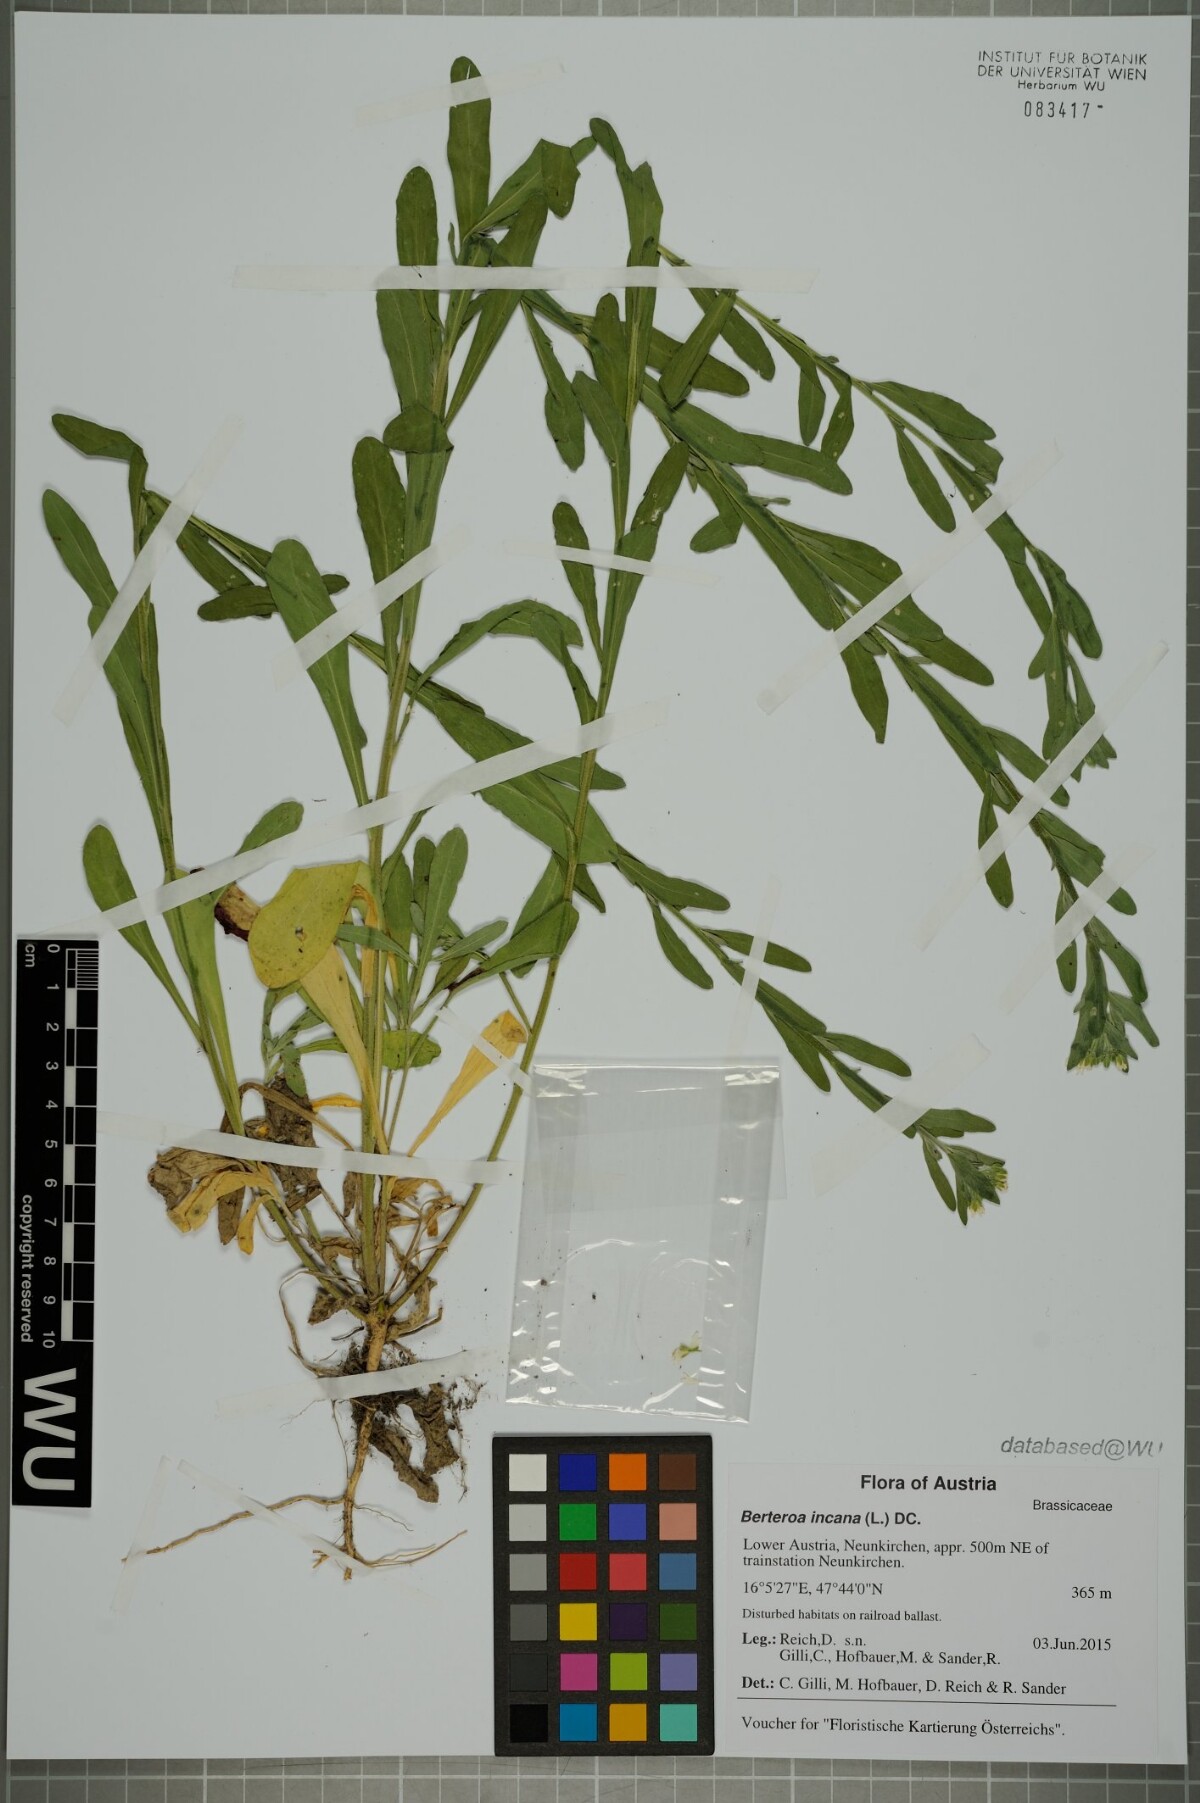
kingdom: Plantae
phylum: Tracheophyta
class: Magnoliopsida
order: Brassicales
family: Brassicaceae
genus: Berteroa
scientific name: Berteroa incana
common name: Hoary alison
